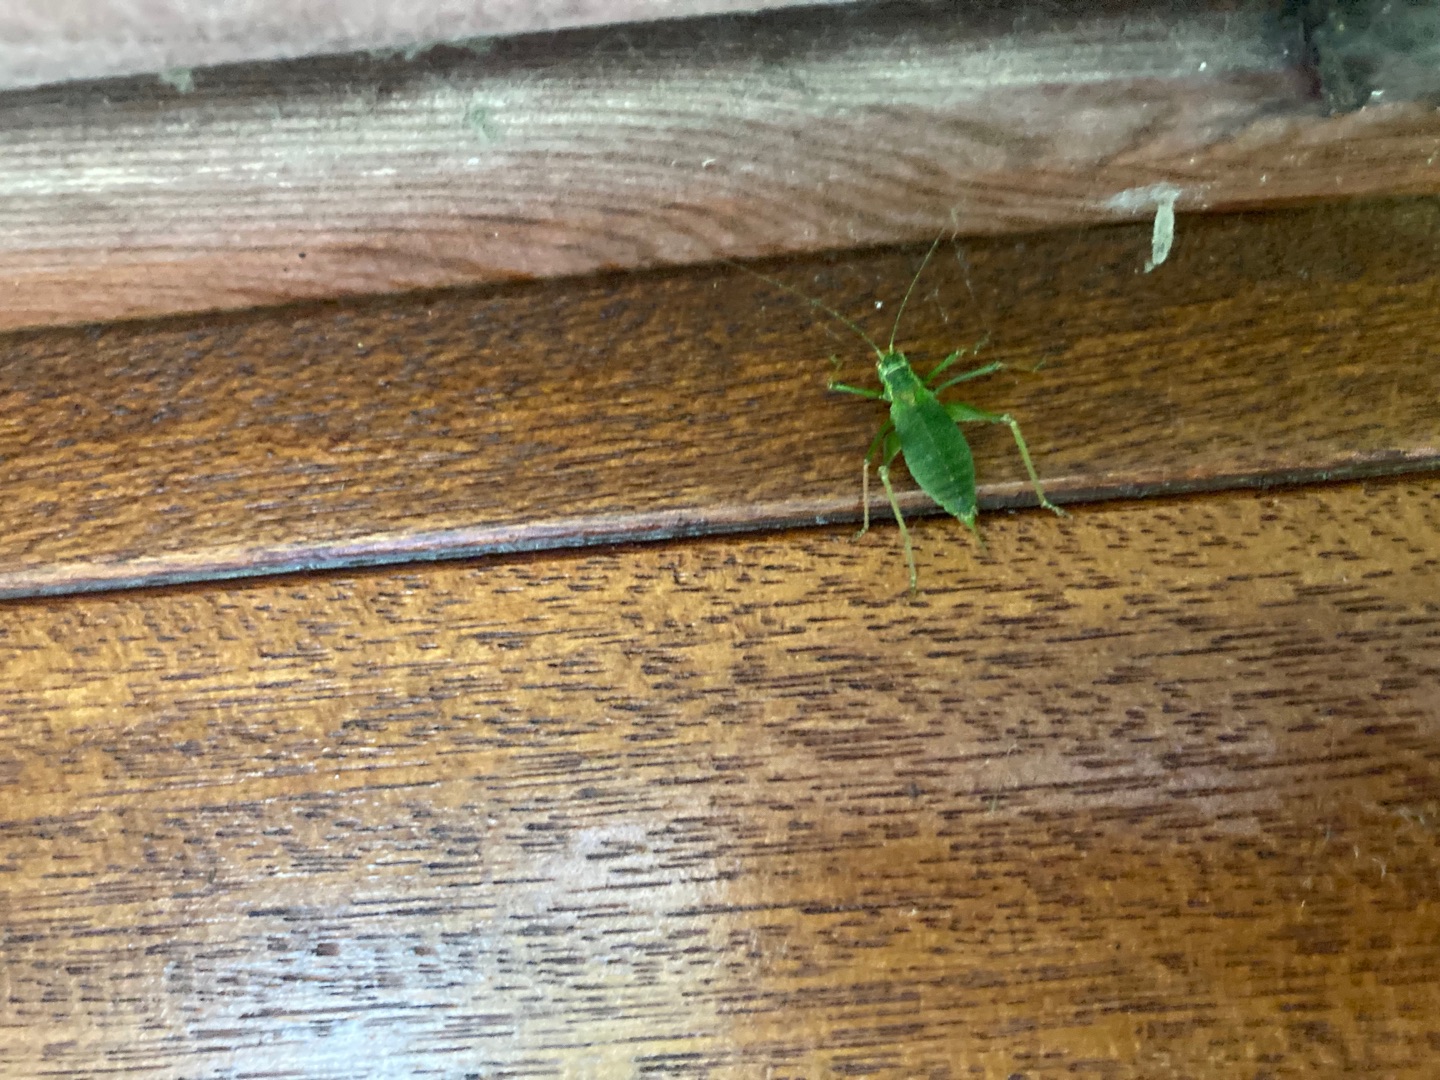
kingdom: Animalia
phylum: Arthropoda
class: Insecta
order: Orthoptera
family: Tettigoniidae
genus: Leptophyes
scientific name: Leptophyes punctatissima
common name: Krumknivgræshoppe
